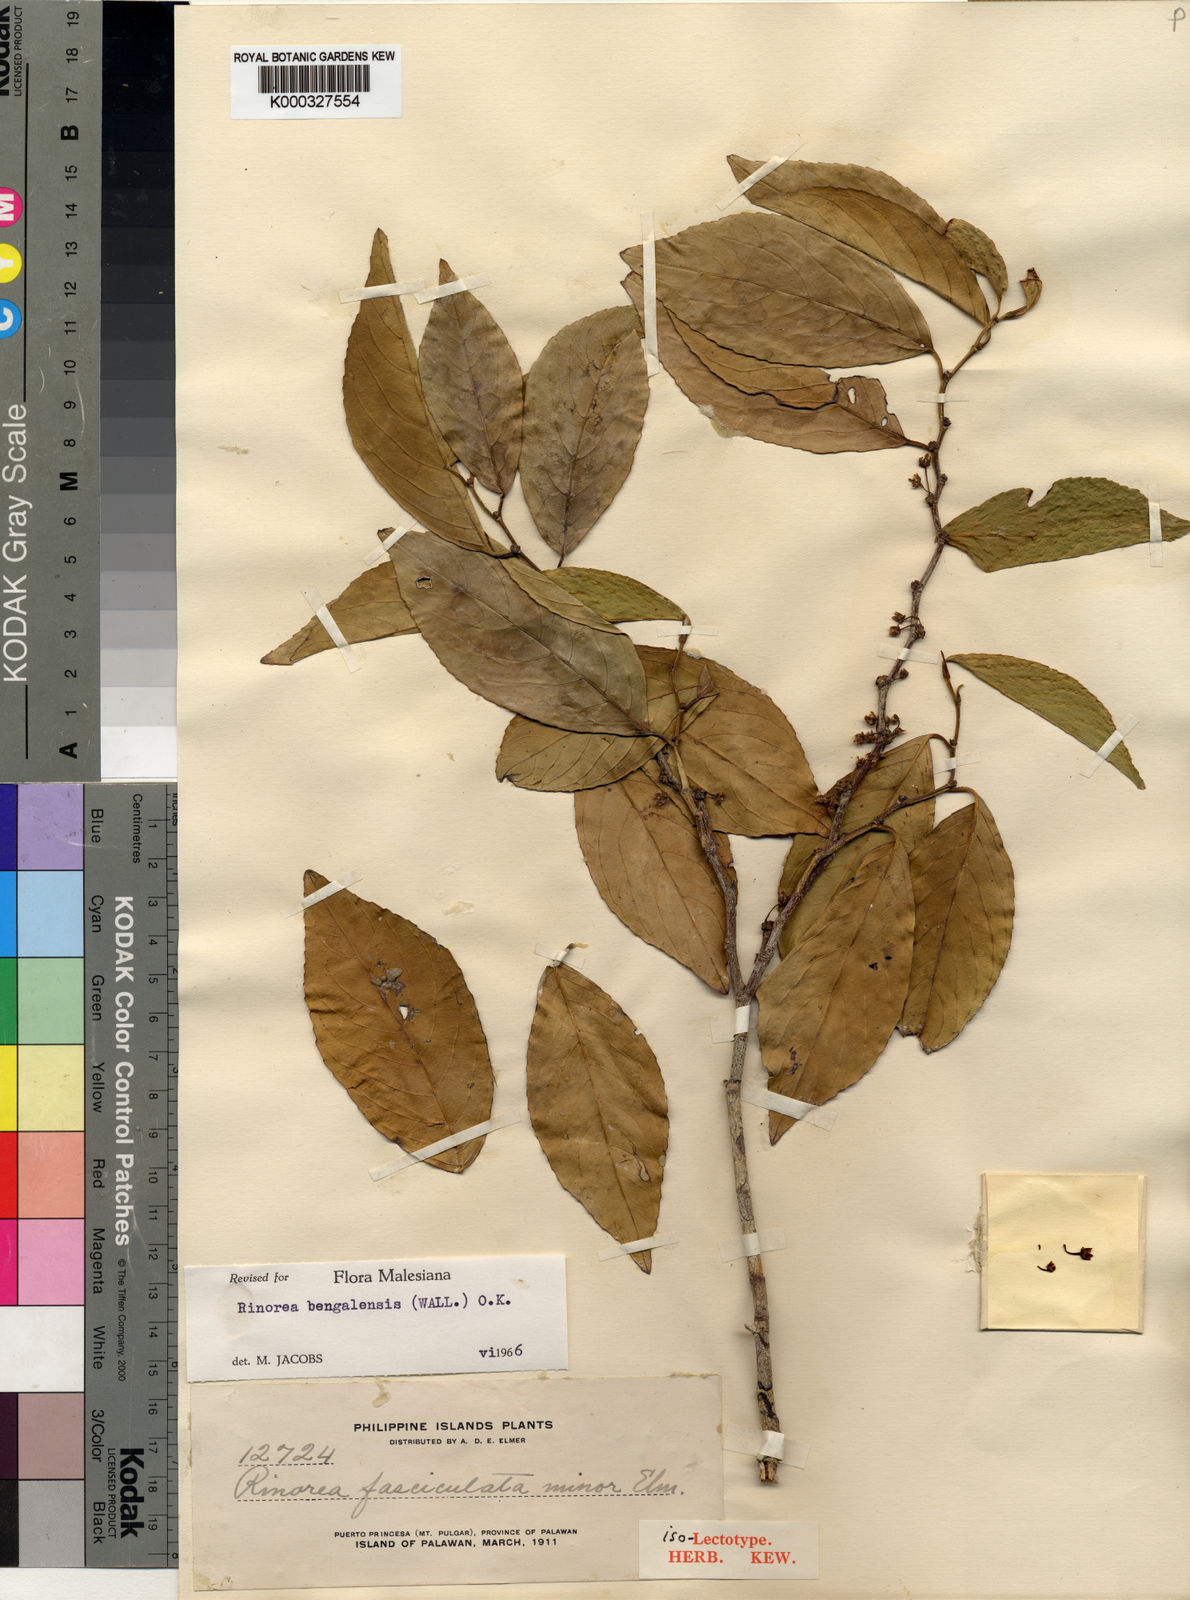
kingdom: Plantae
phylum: Tracheophyta
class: Magnoliopsida
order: Malpighiales
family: Violaceae
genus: Rinorea
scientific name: Rinorea bengalensis
